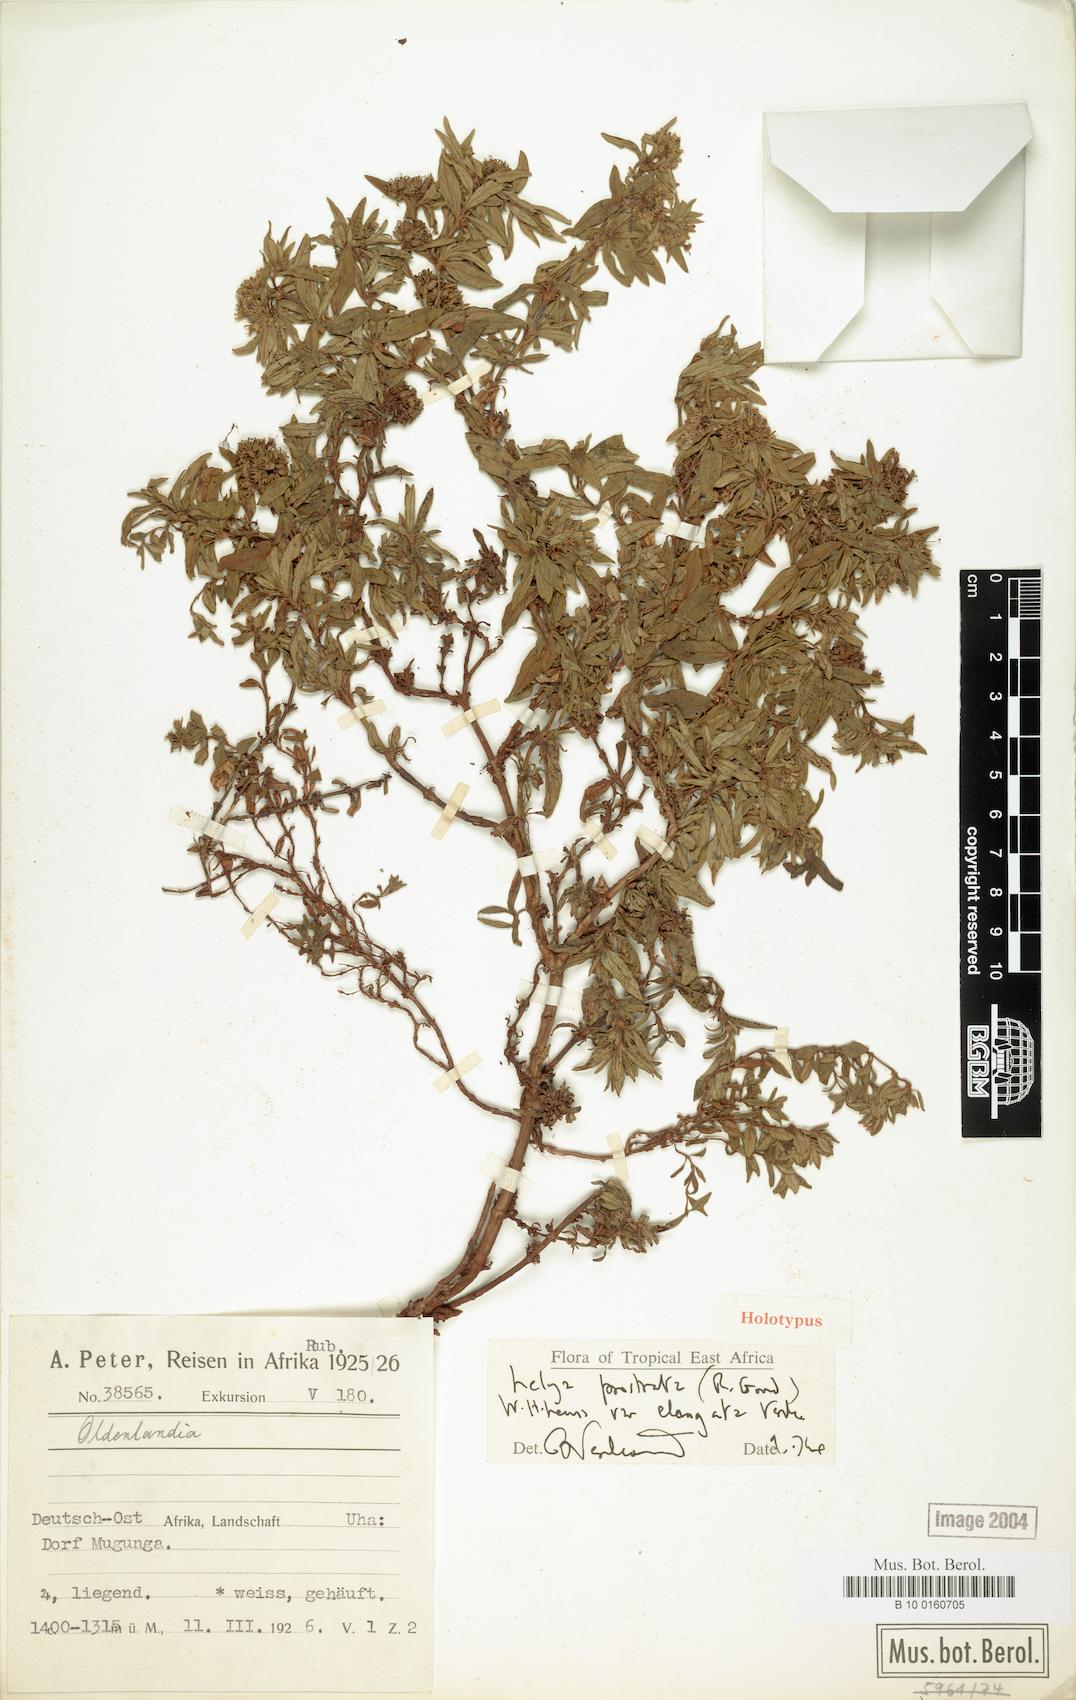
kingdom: Plantae
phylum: Tracheophyta
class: Magnoliopsida
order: Gentianales
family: Rubiaceae
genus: Lelya
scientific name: Lelya osteocarpa
